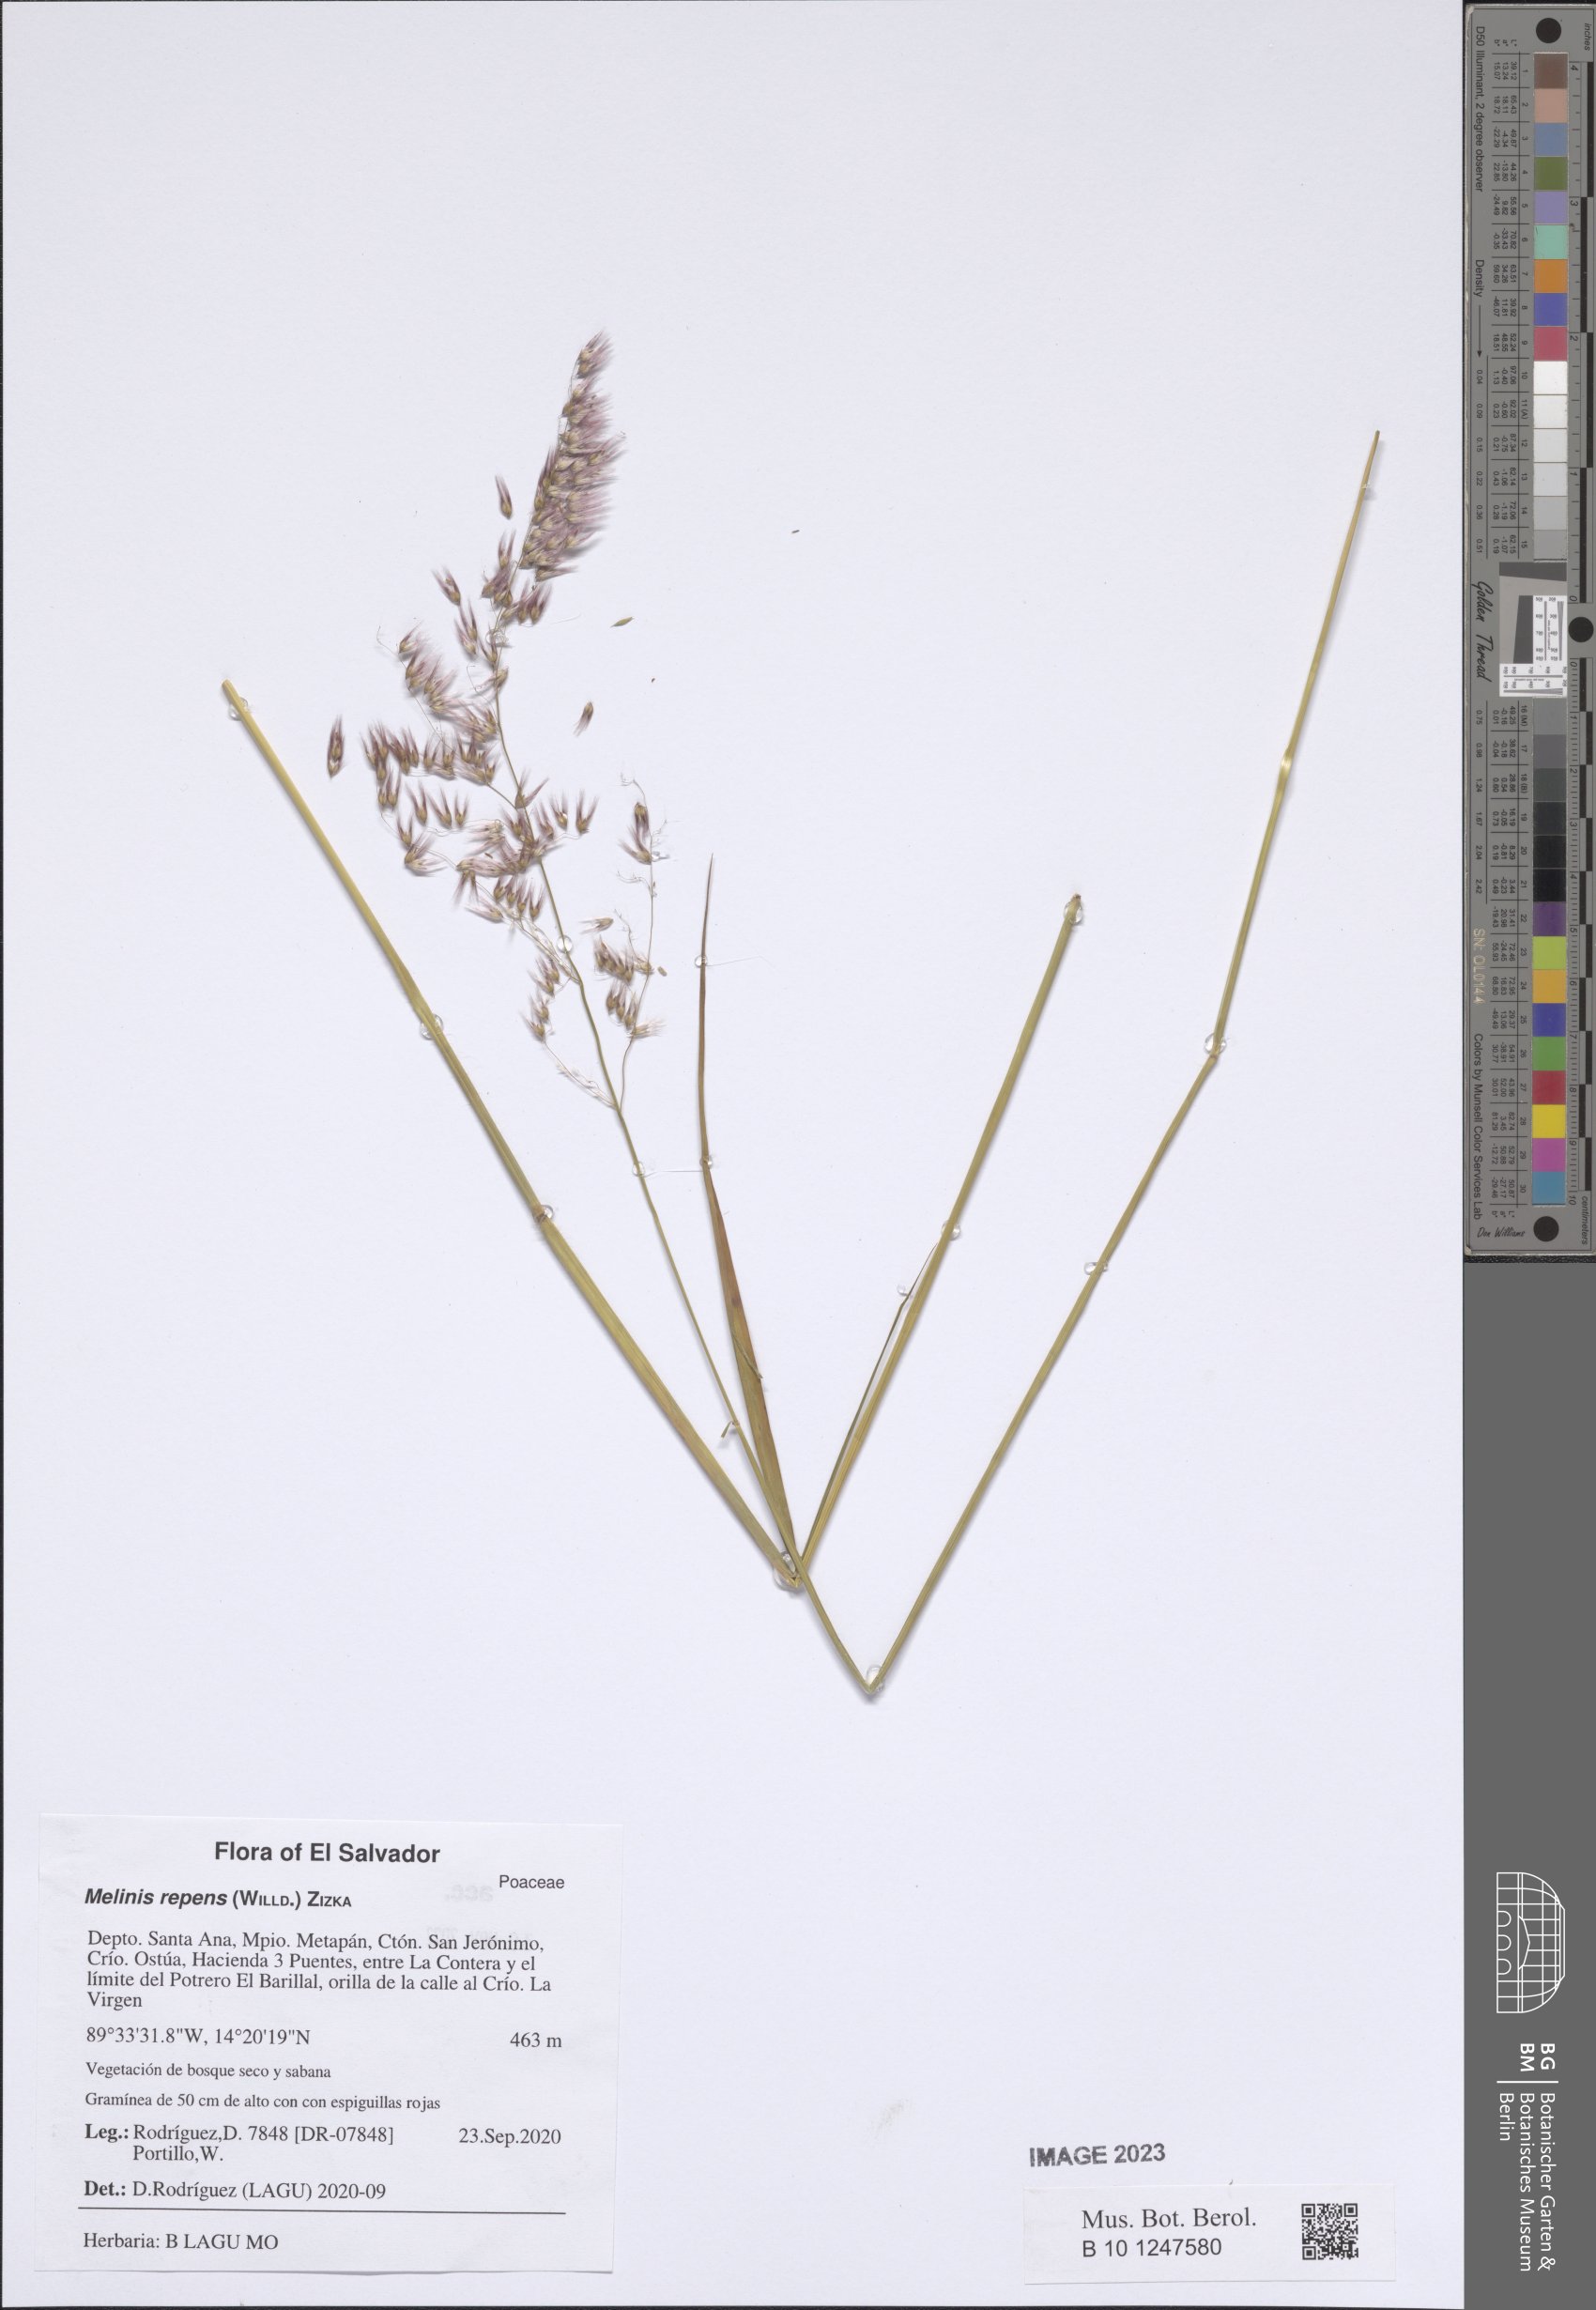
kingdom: Plantae
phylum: Tracheophyta
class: Liliopsida
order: Poales
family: Poaceae
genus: Melinis
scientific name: Melinis repens
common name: Rose natal grass
